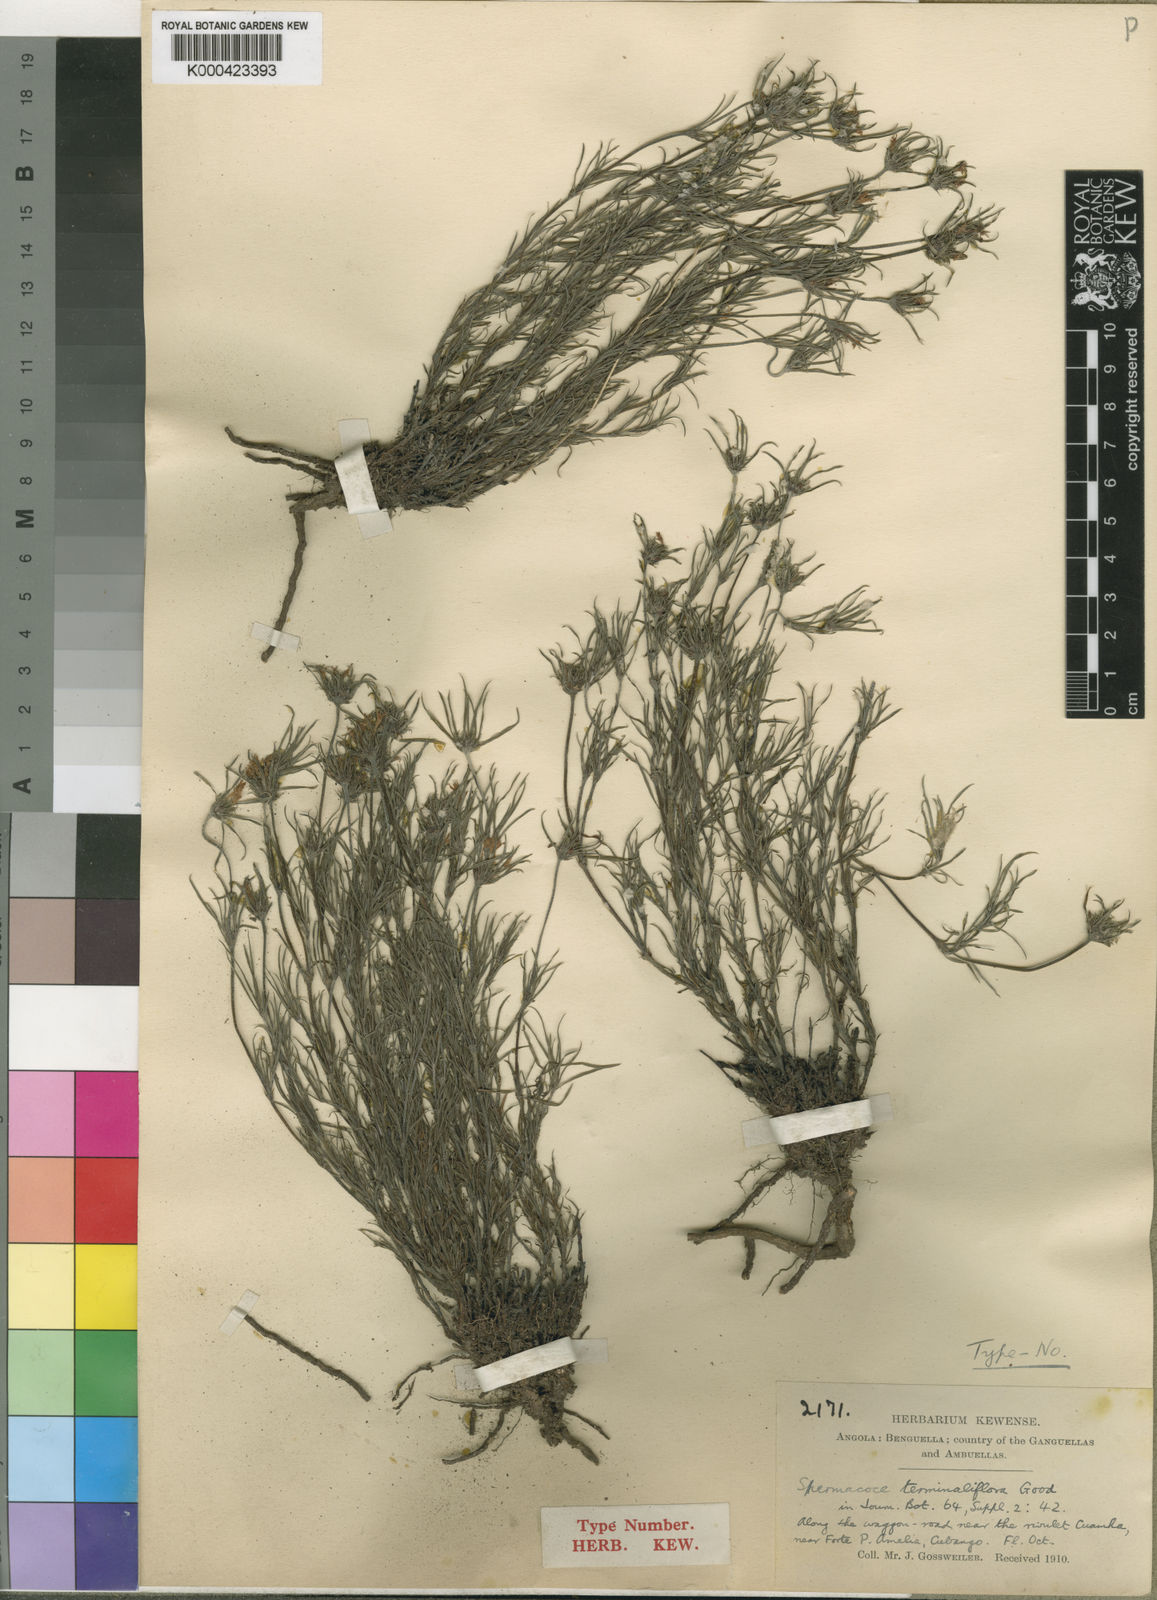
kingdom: Plantae
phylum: Tracheophyta
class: Magnoliopsida
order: Gentianales
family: Rubiaceae
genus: Spermacoce
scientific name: Spermacoce terminaliflora
